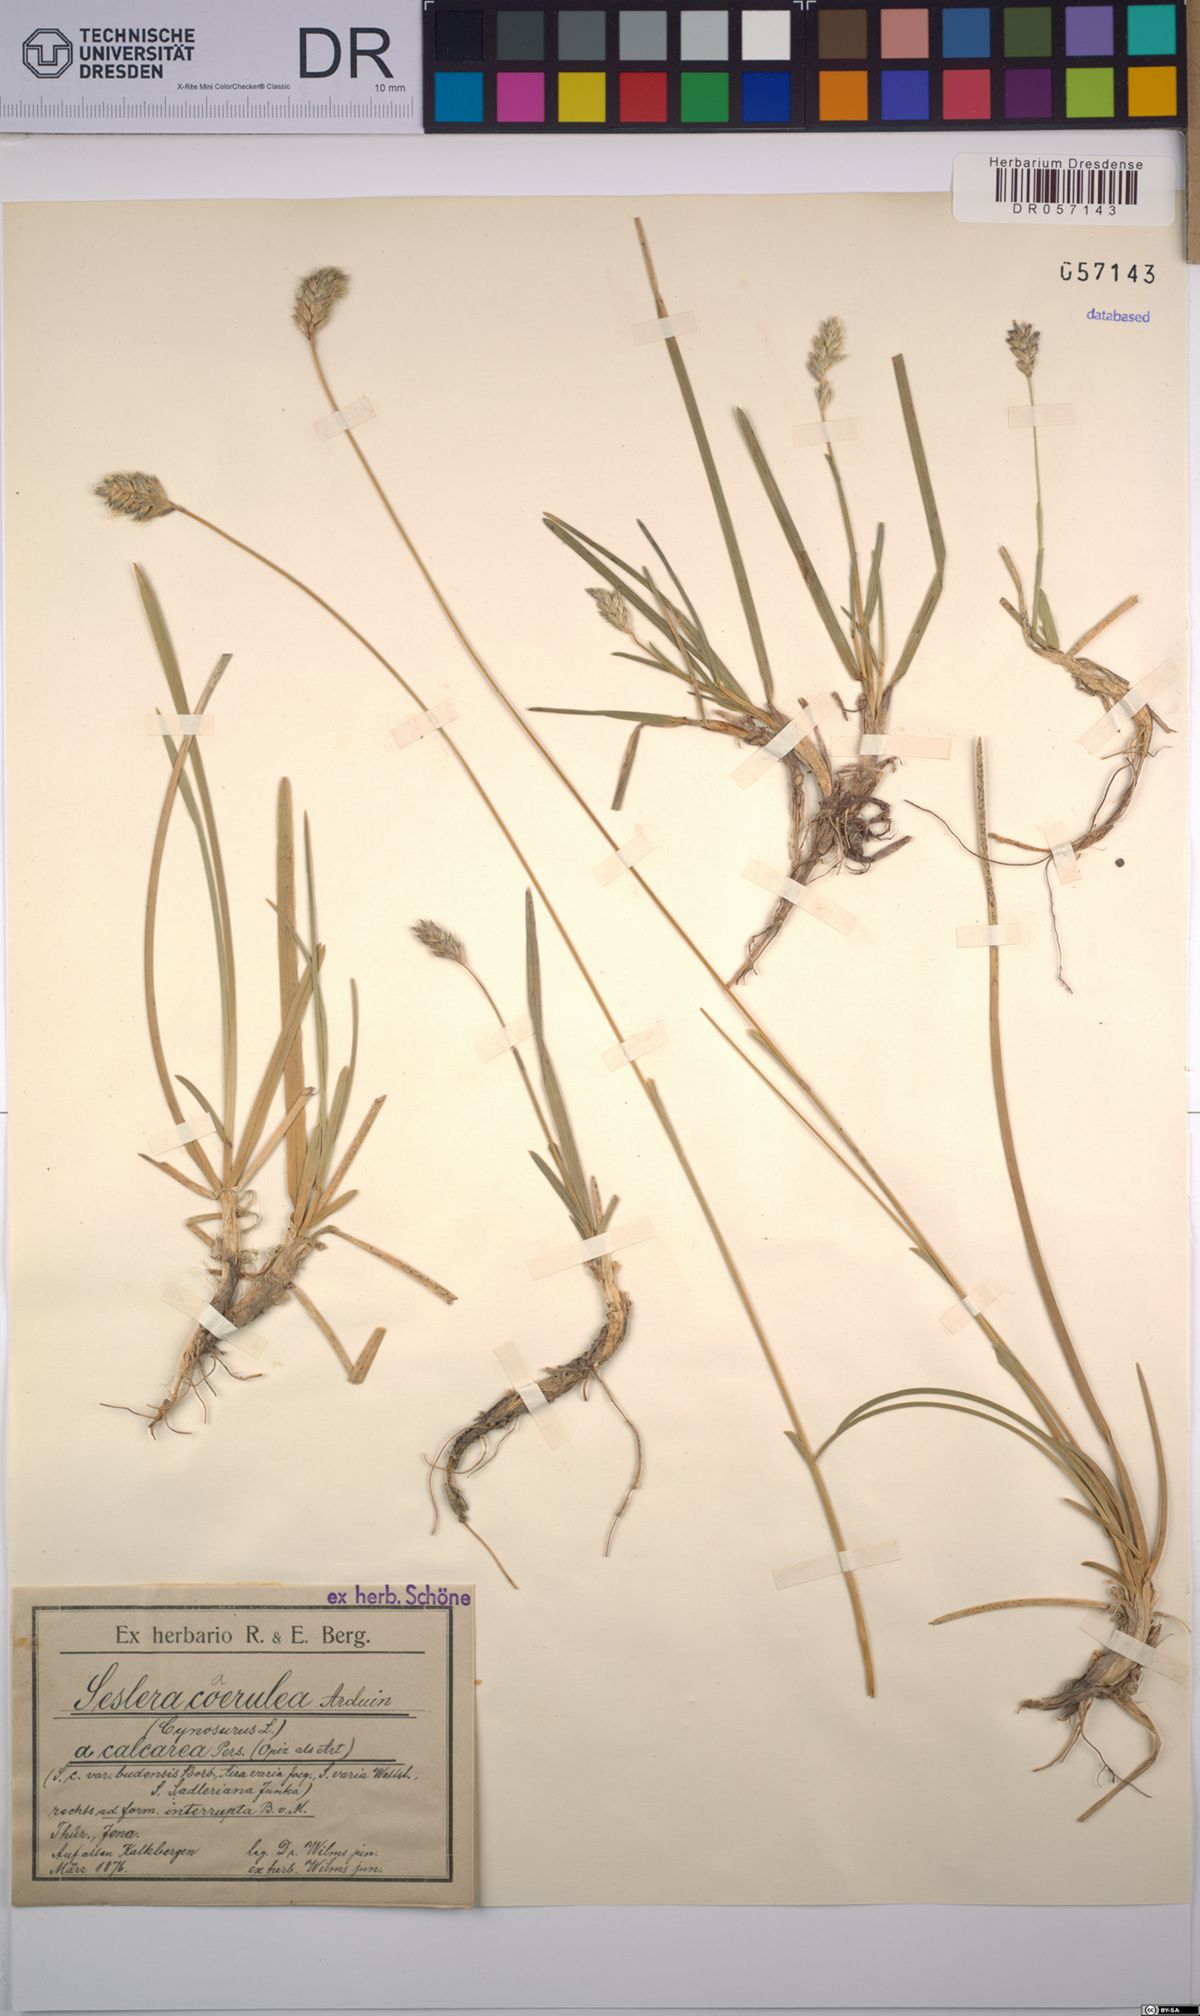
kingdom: Plantae
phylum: Tracheophyta
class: Liliopsida
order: Poales
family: Poaceae
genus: Sesleria
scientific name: Sesleria caerulea
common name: Blue moor-grass
